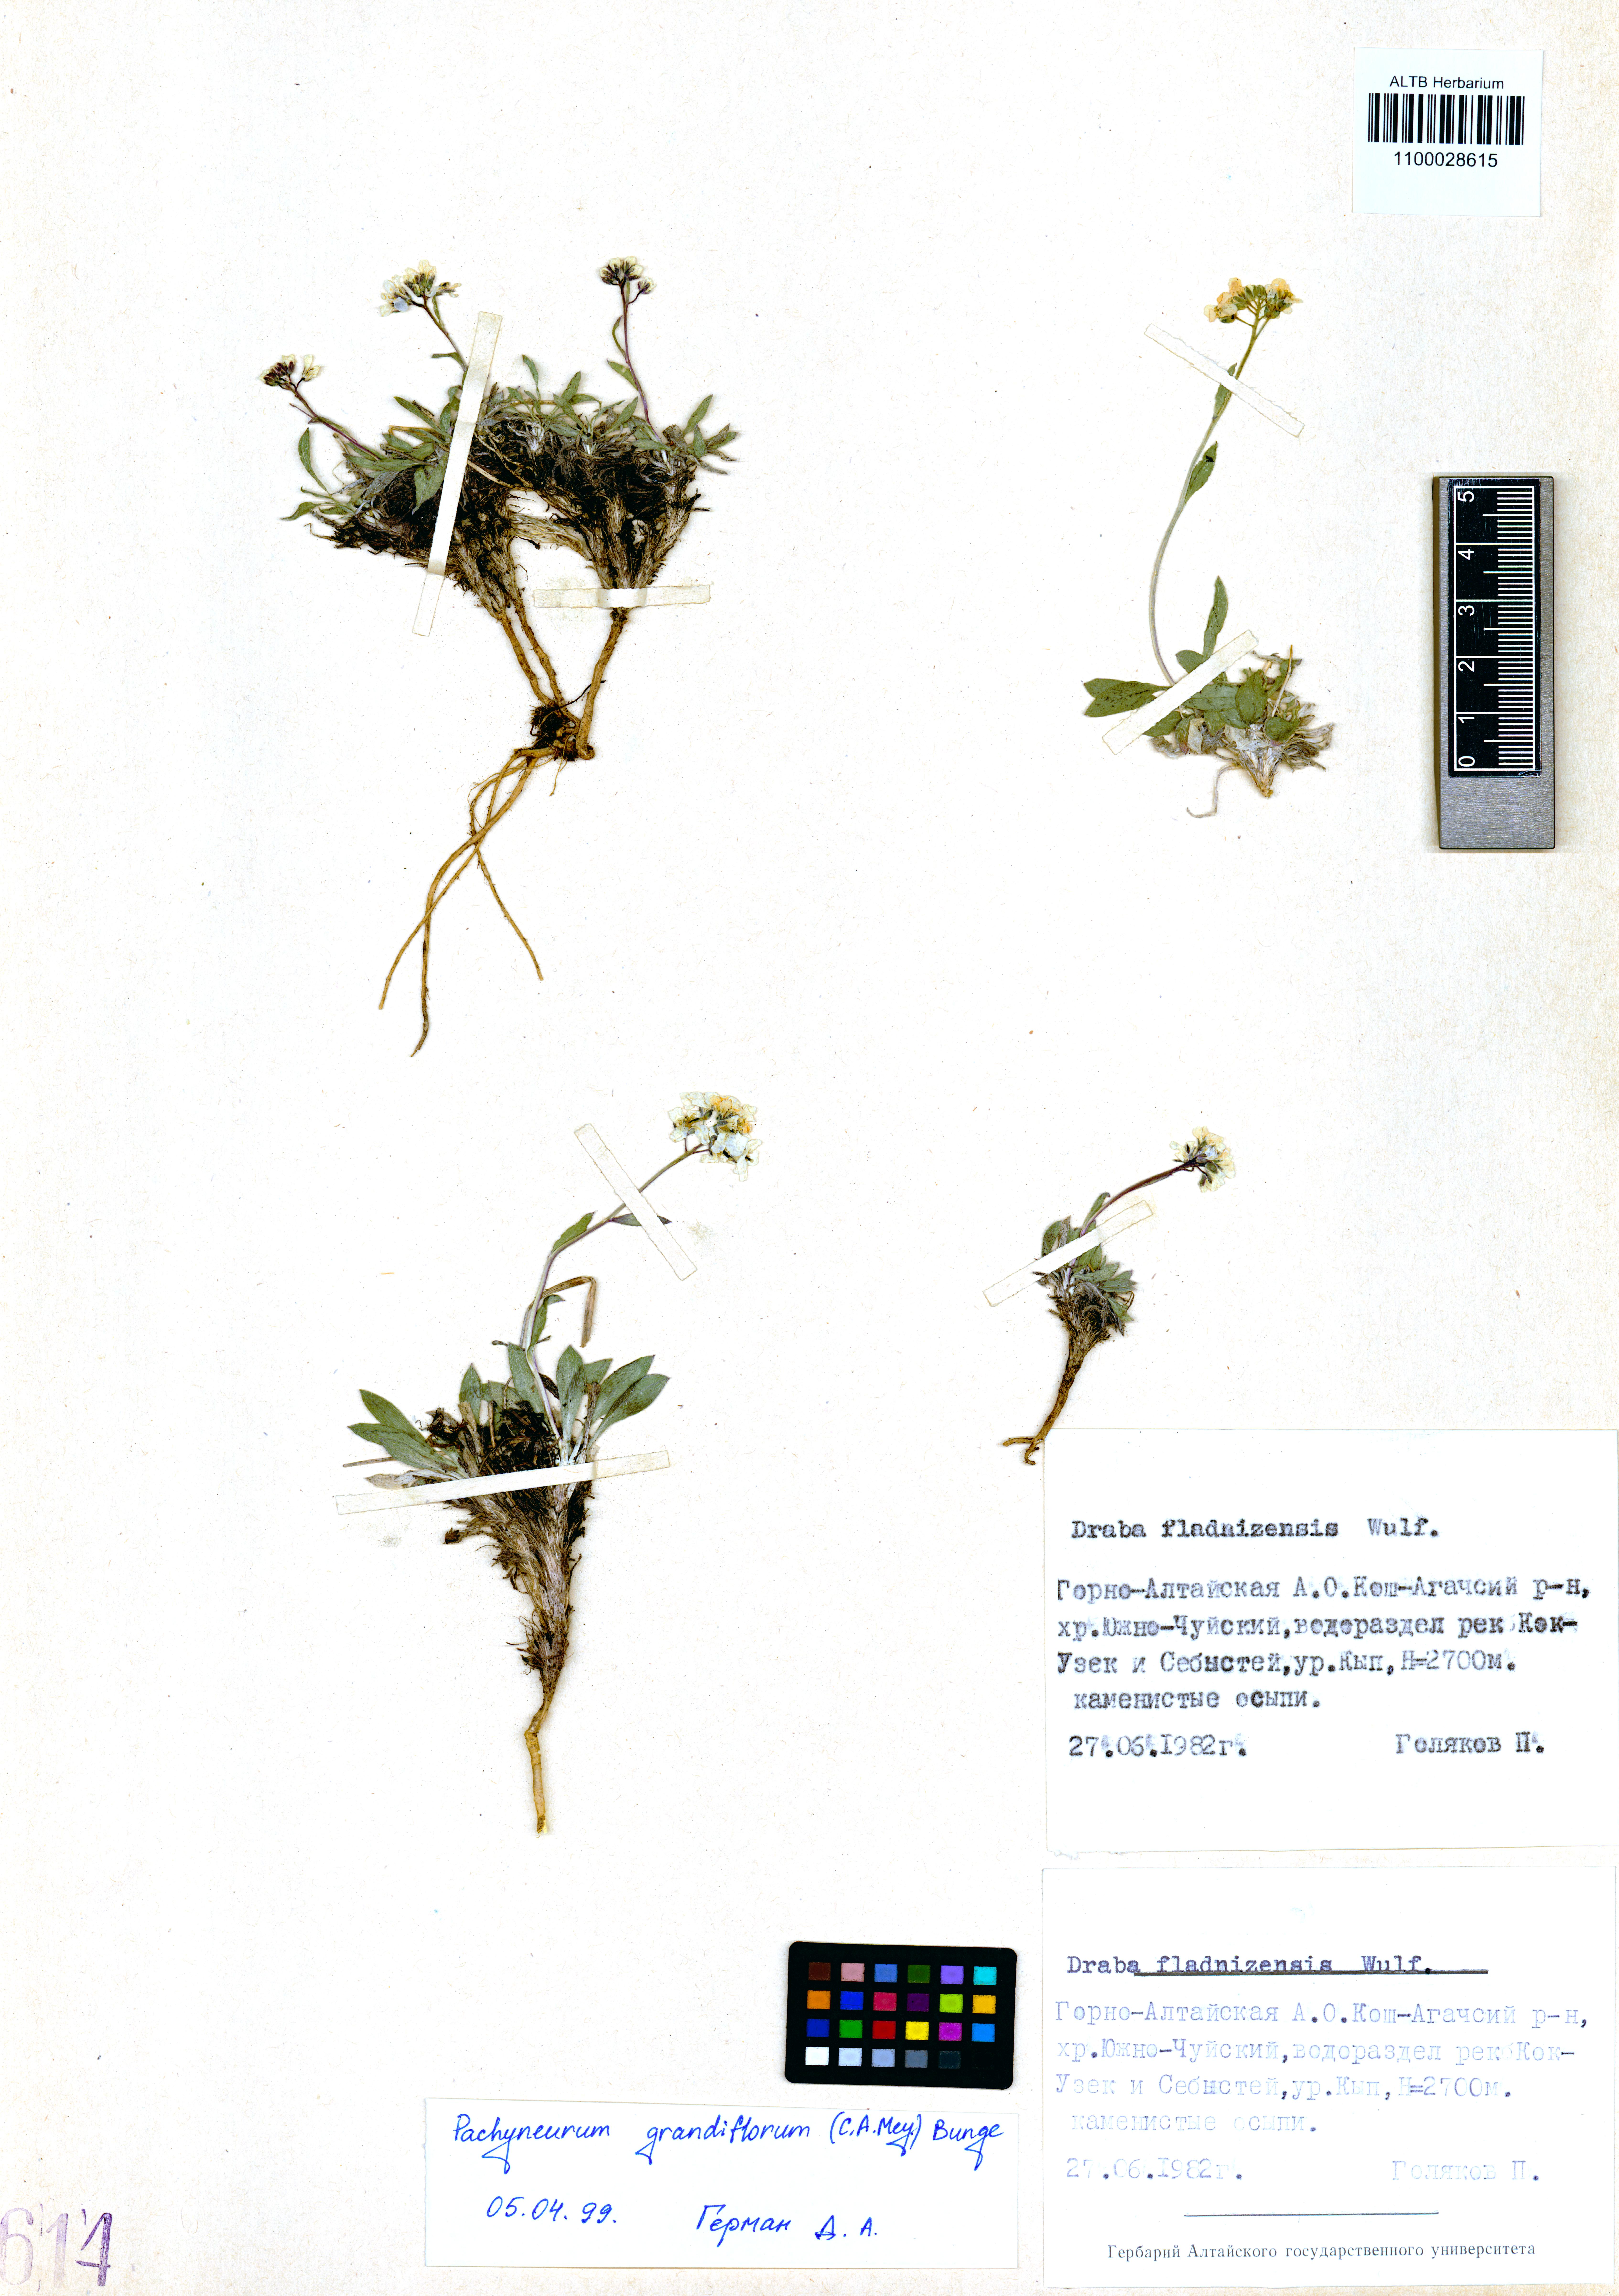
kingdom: Plantae
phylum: Tracheophyta
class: Magnoliopsida
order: Brassicales
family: Brassicaceae
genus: Pachyneurum
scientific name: Pachyneurum grandiflorum
